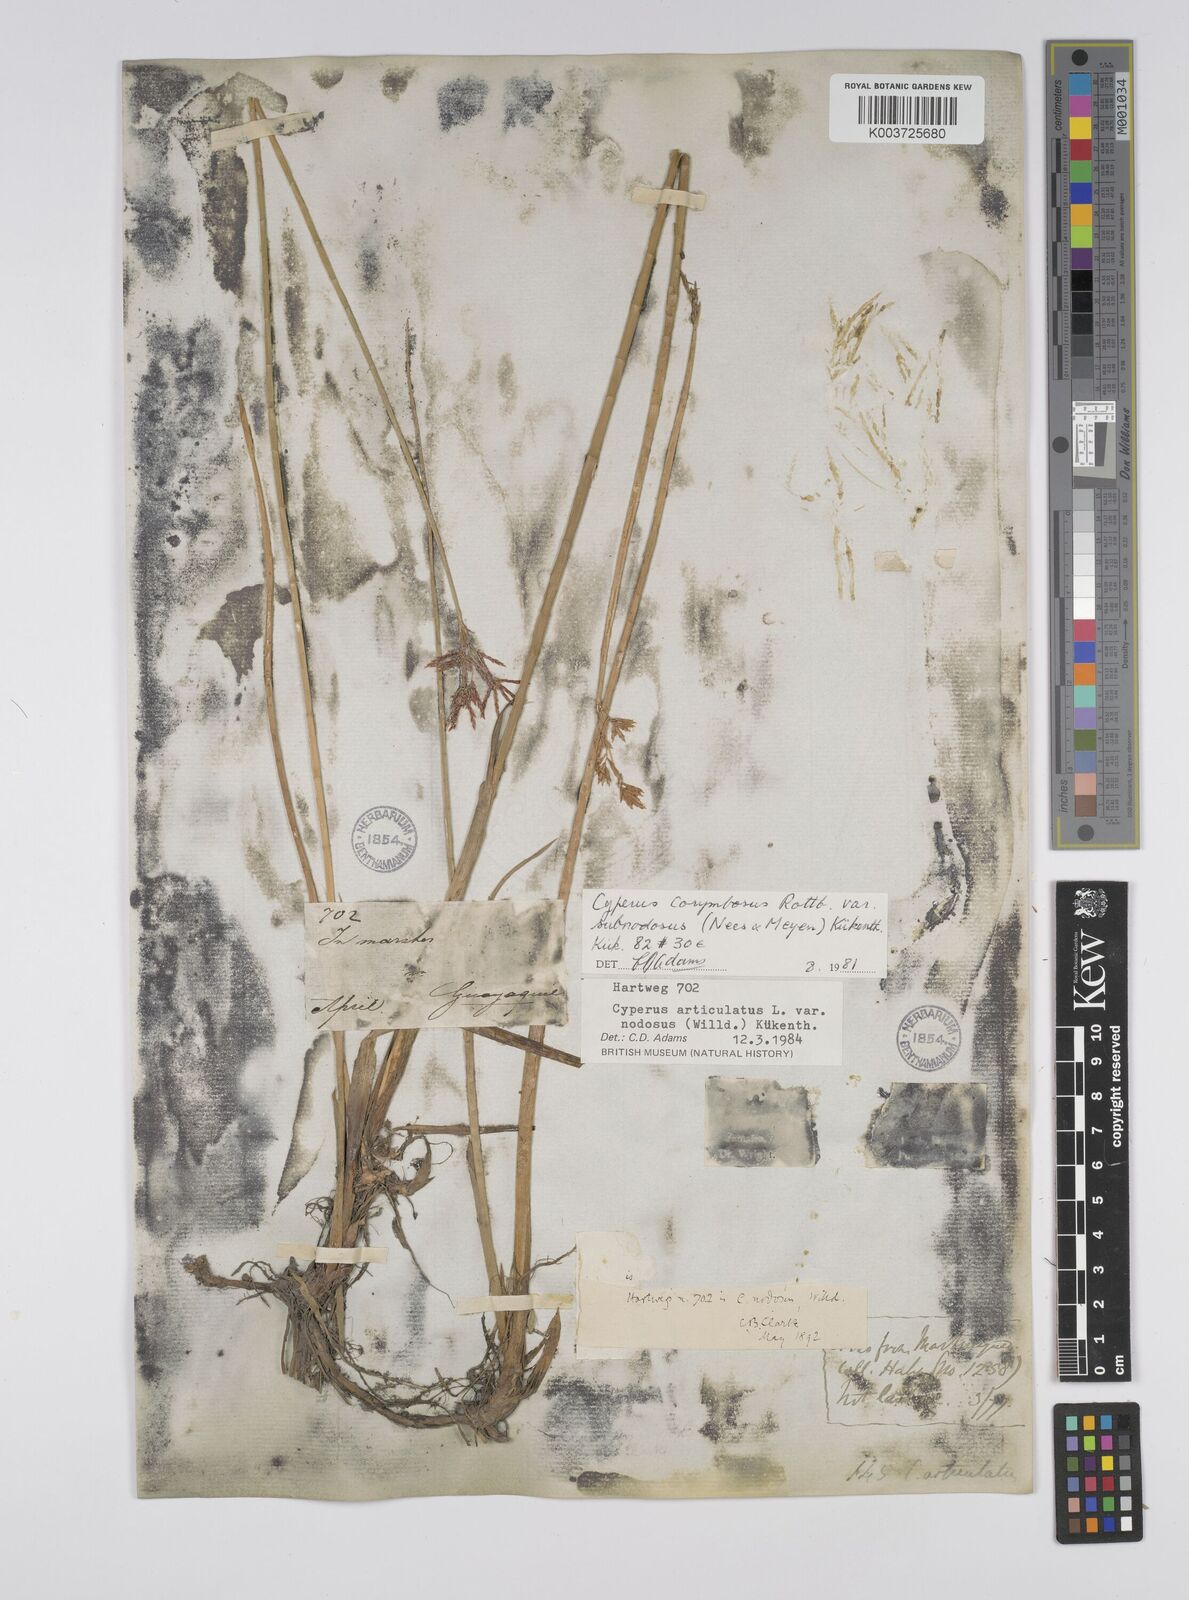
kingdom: Plantae
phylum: Tracheophyta
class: Liliopsida
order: Poales
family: Cyperaceae
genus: Cyperus
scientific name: Cyperus articulatus
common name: Jointed flatsedge
